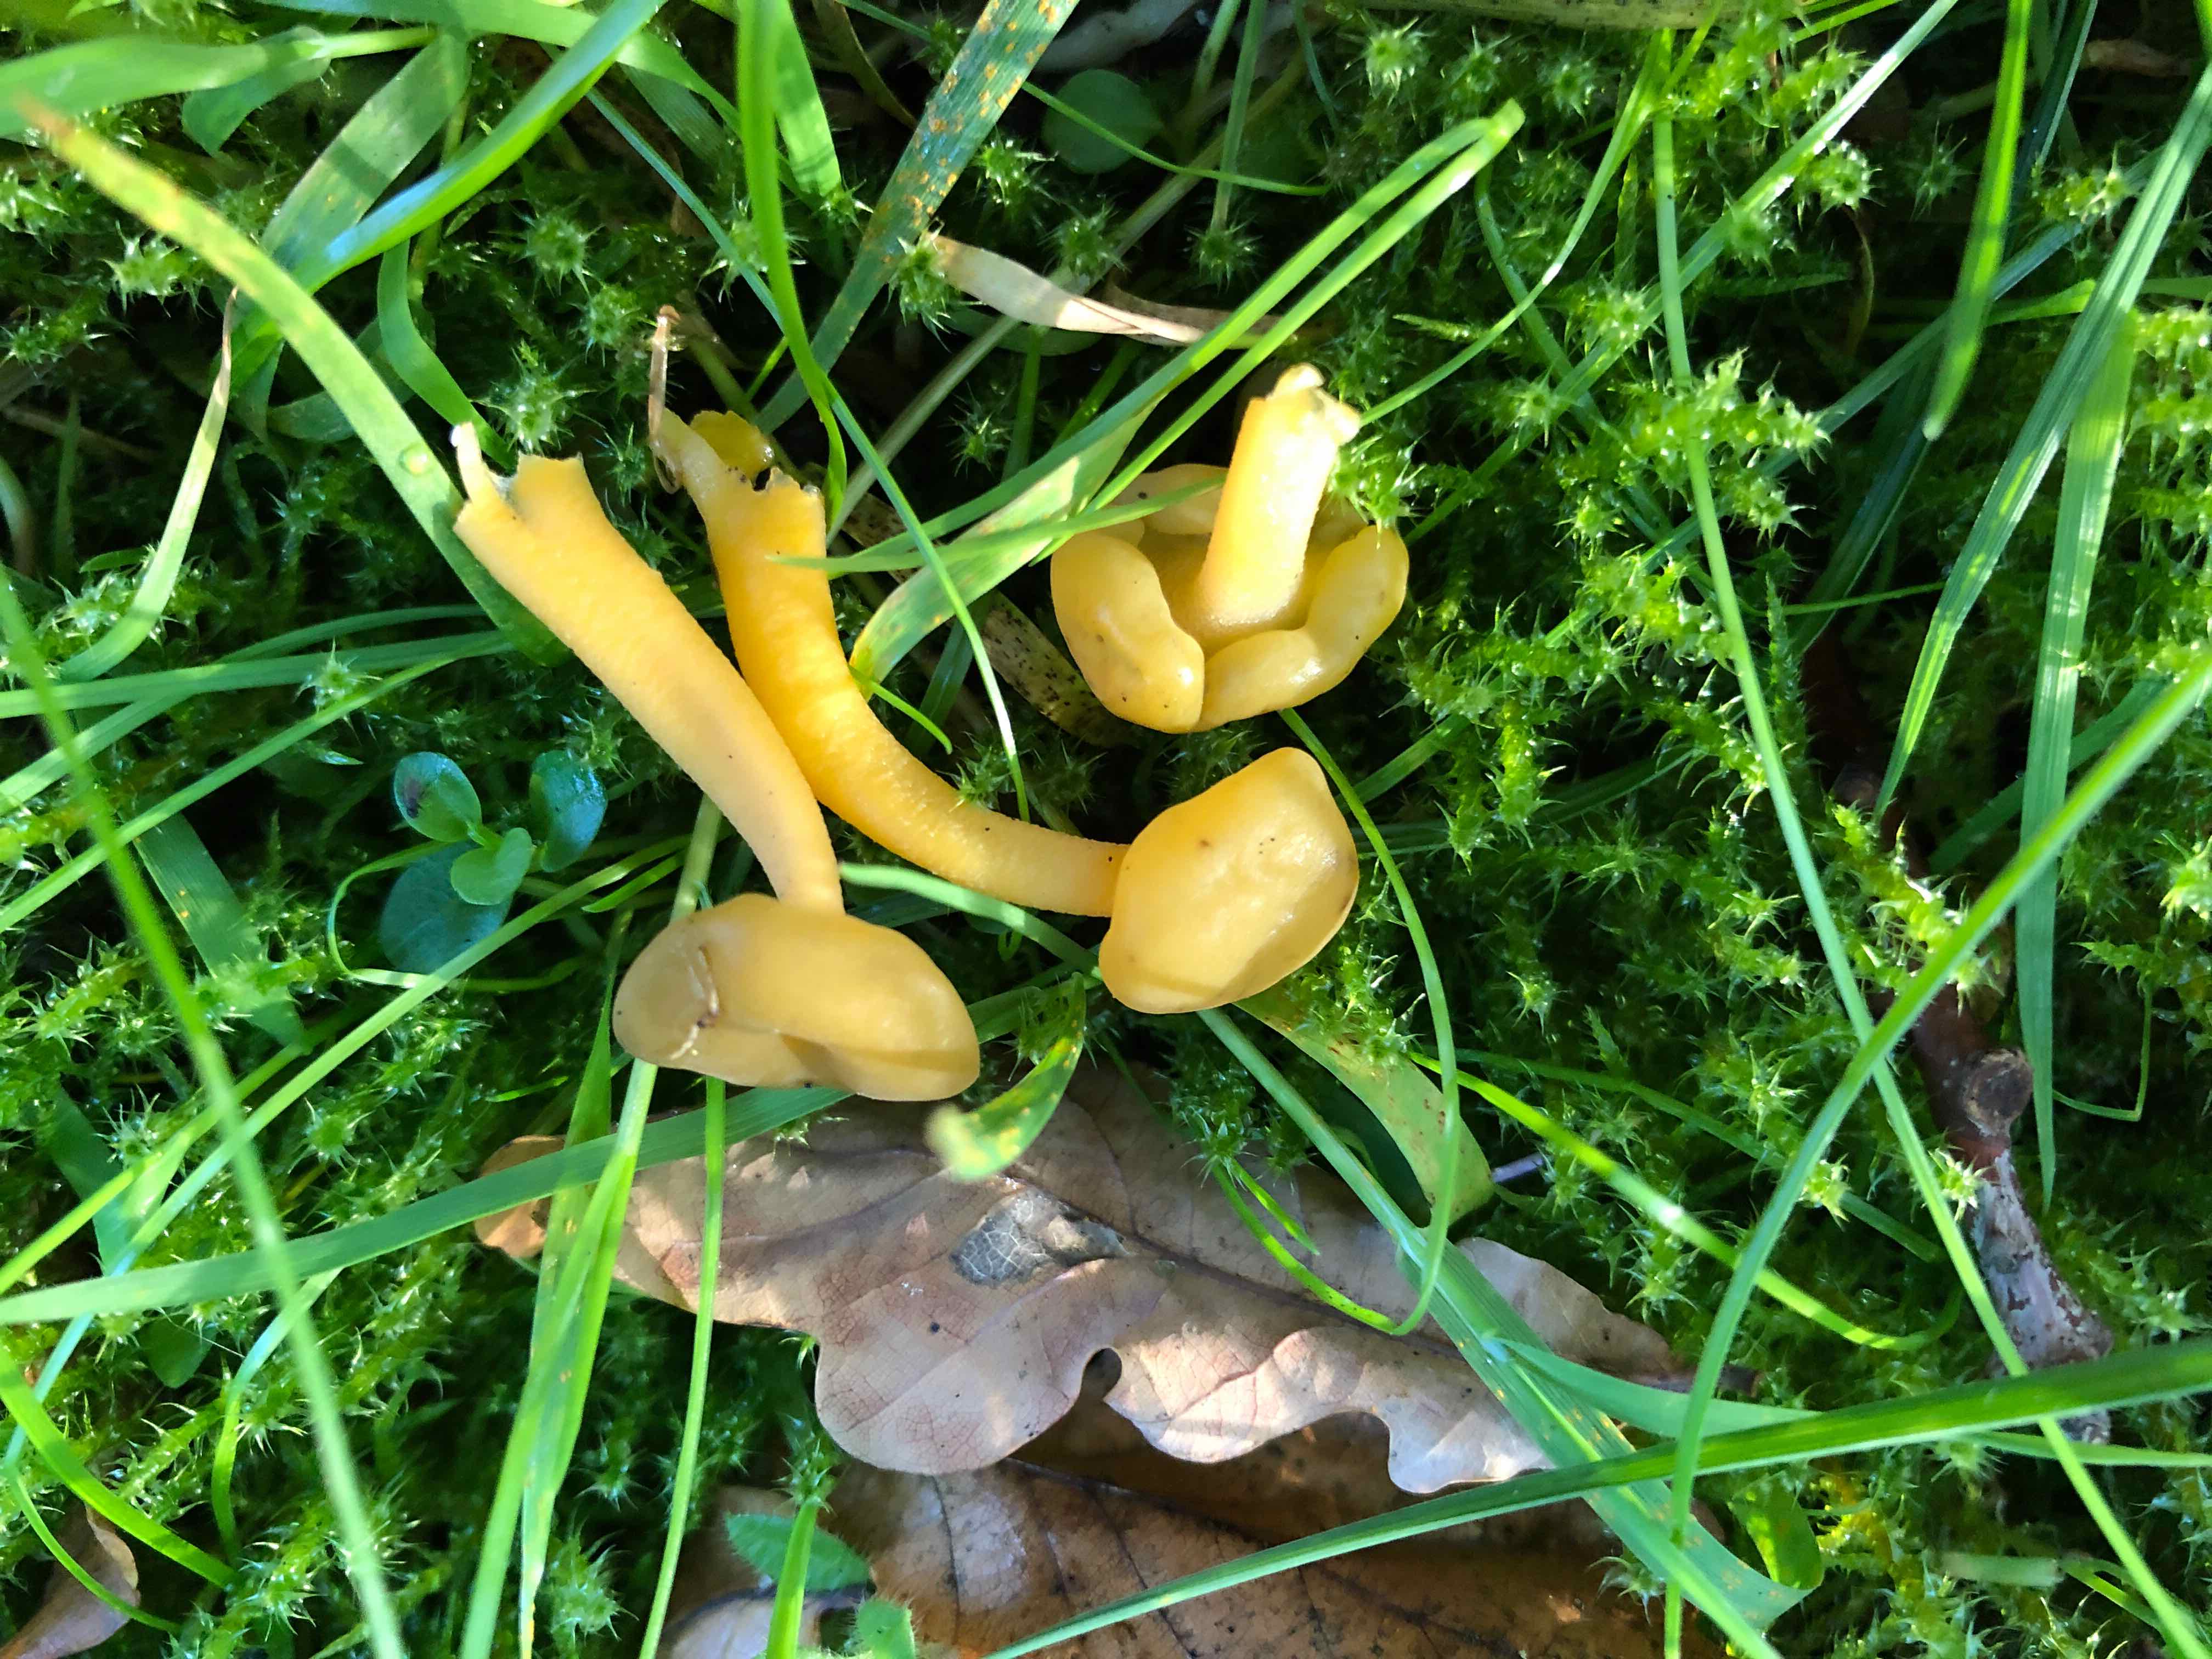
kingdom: Fungi
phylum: Ascomycota
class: Leotiomycetes
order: Leotiales
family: Leotiaceae
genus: Leotia
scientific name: Leotia lubrica
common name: ravsvamp
